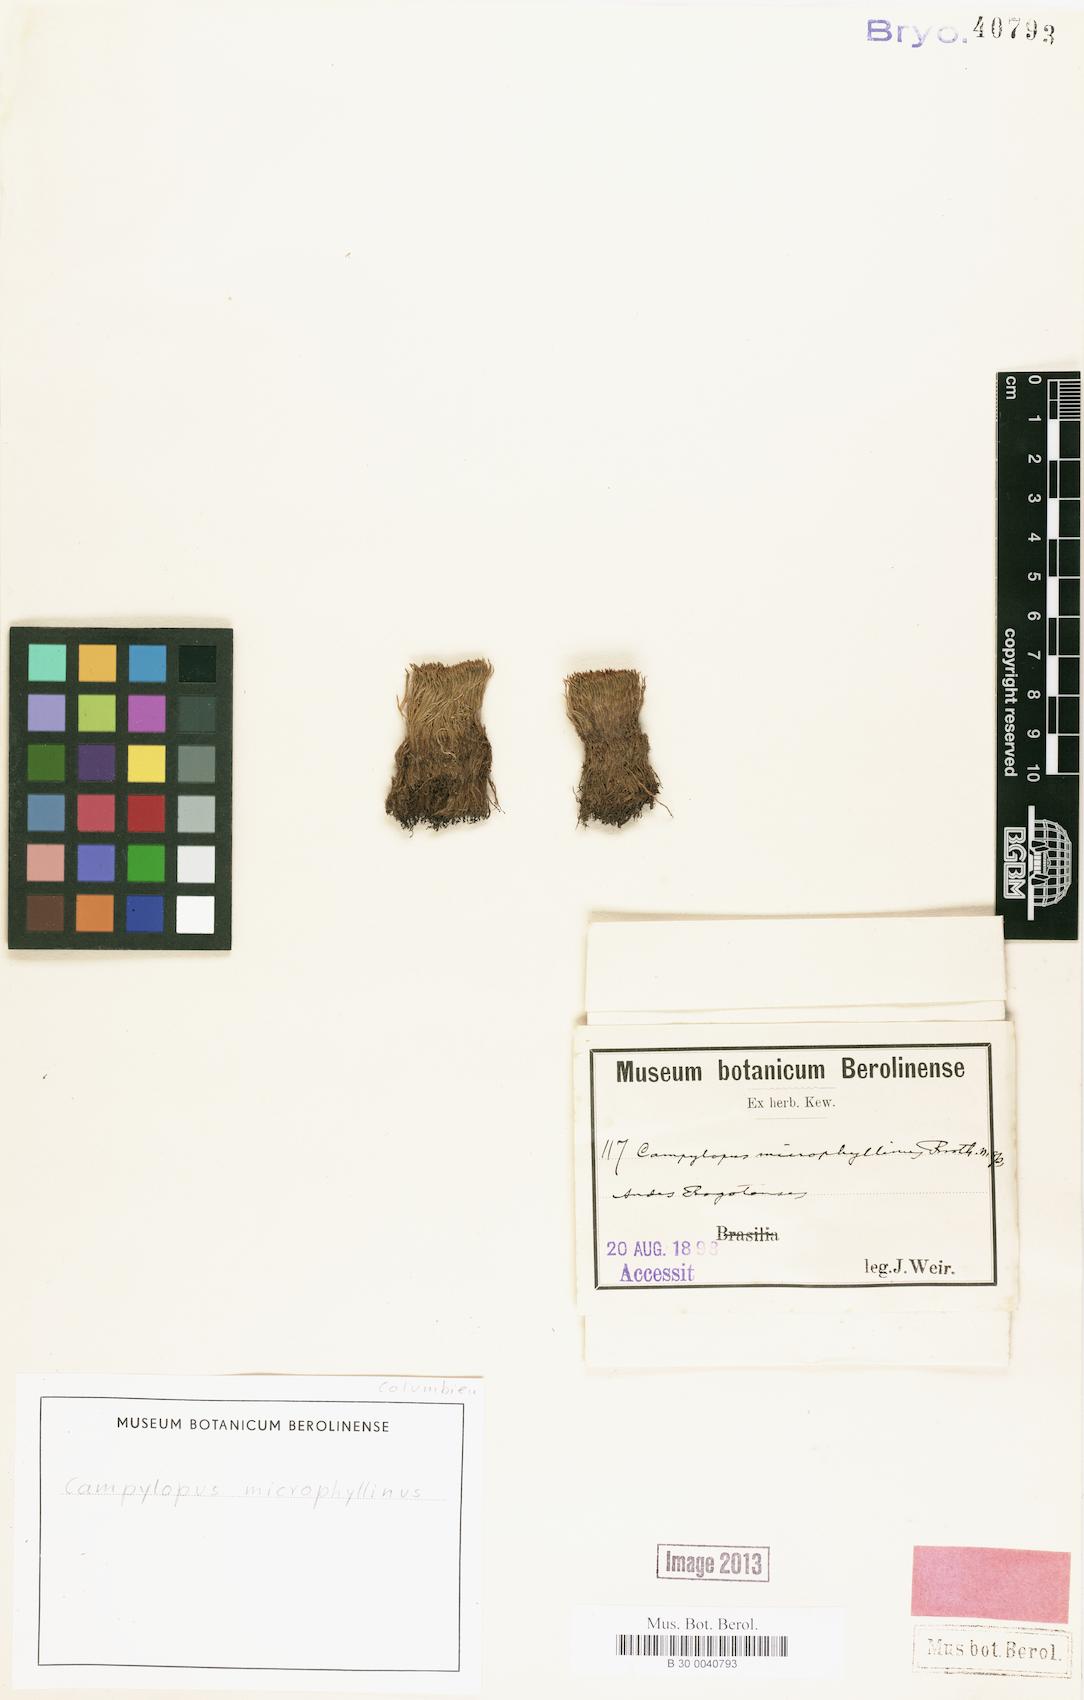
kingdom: Plantae
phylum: Bryophyta
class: Bryopsida
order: Dicranales
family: Dicranaceae
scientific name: Dicranaceae
